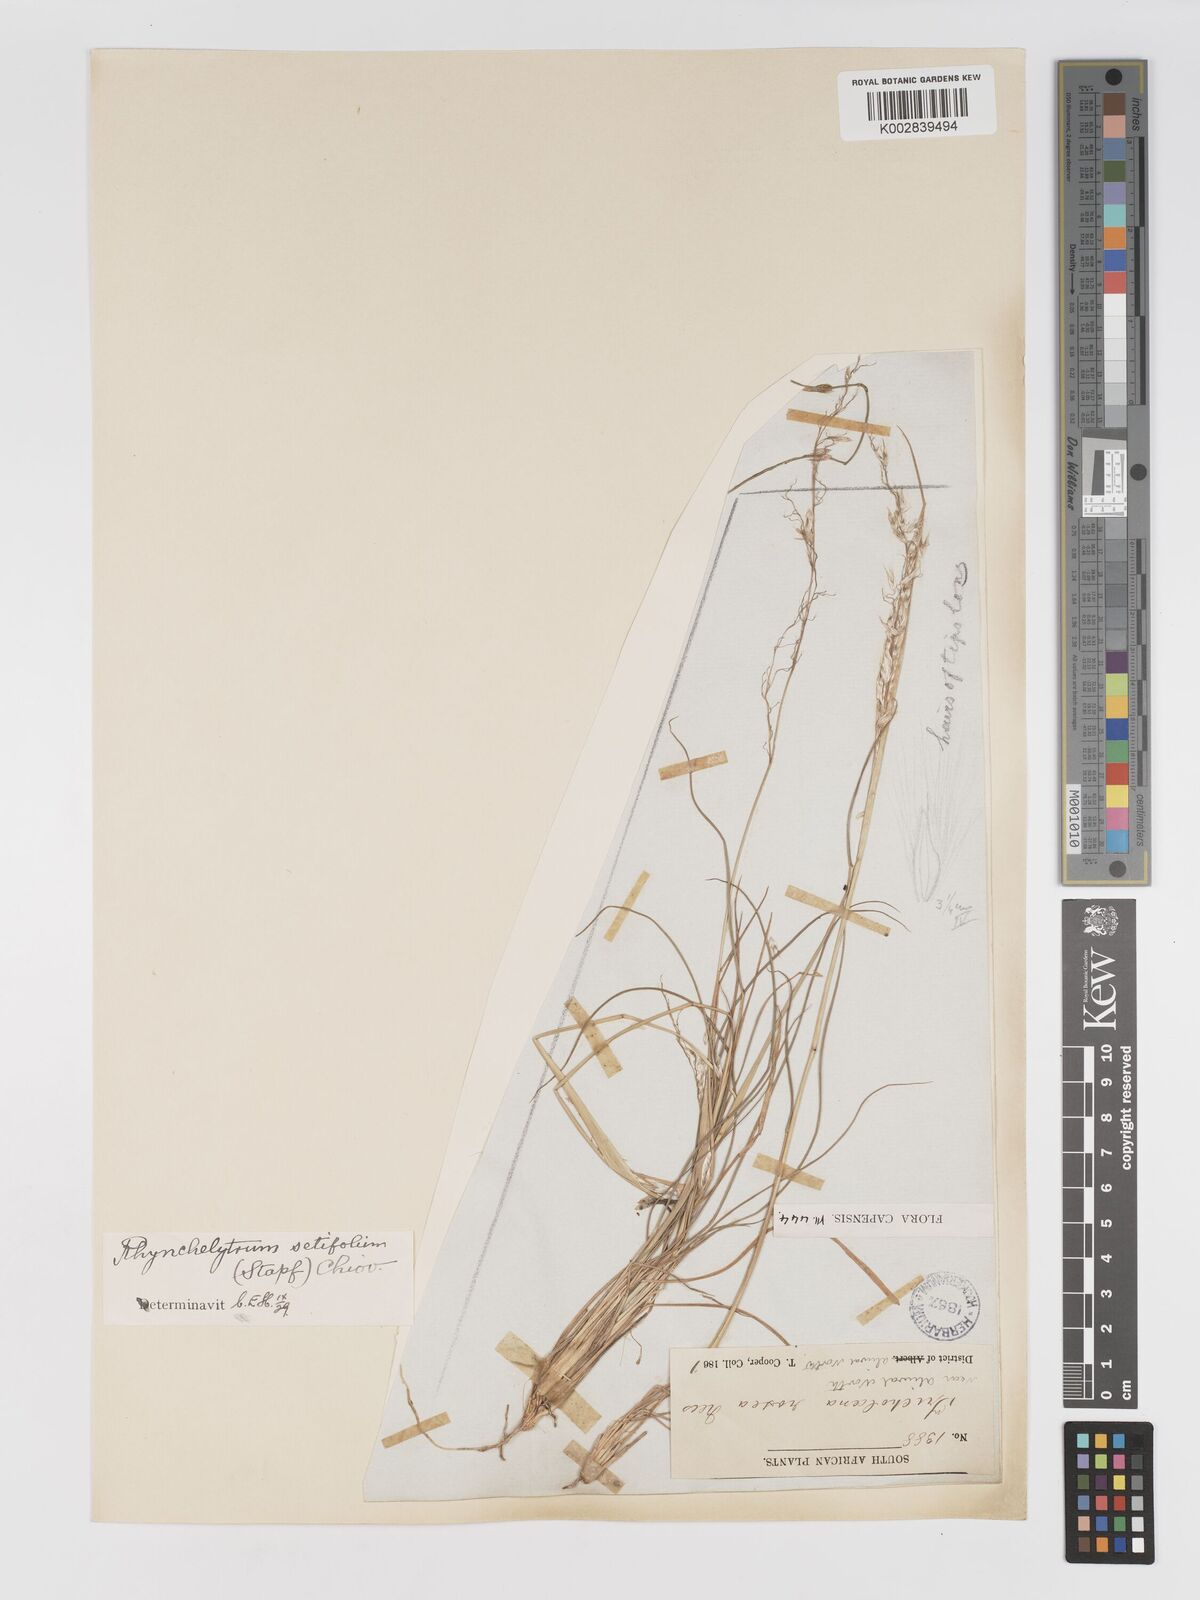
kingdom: Plantae
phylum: Tracheophyta
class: Liliopsida
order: Poales
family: Poaceae
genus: Melinis
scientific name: Melinis nerviglumis
